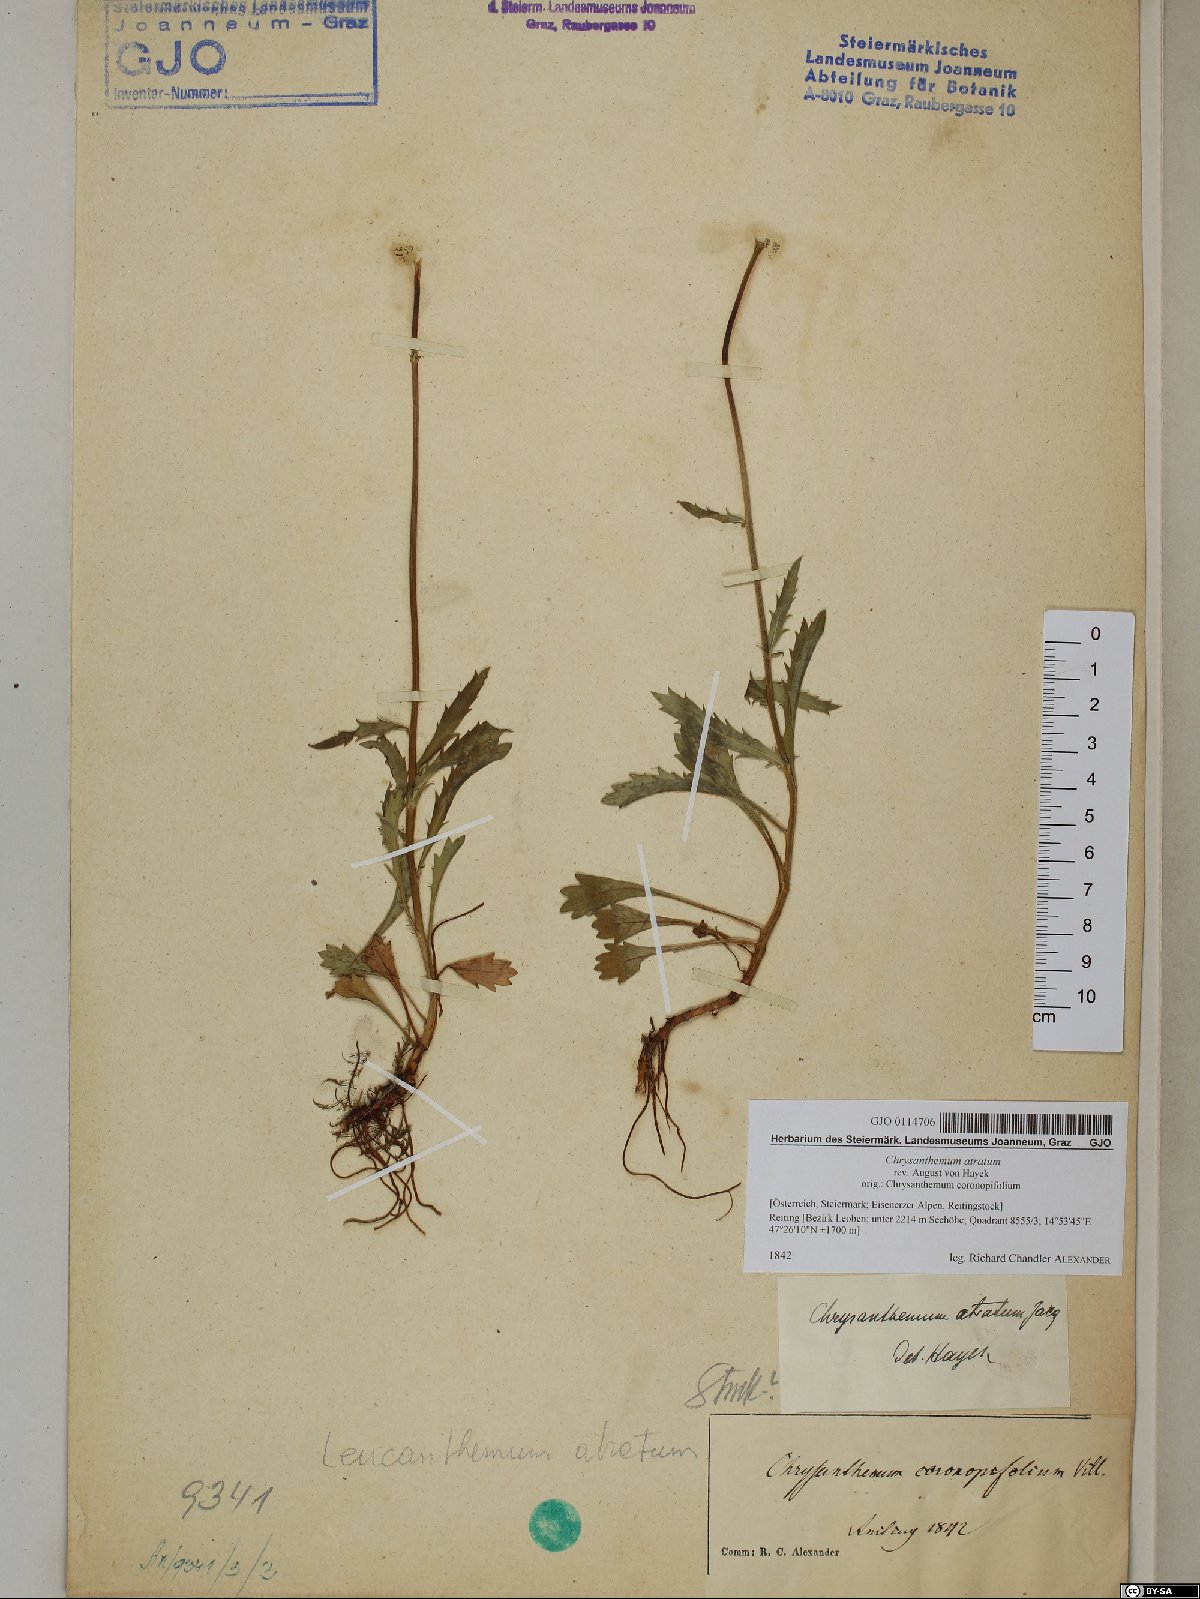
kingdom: Plantae
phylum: Tracheophyta
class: Magnoliopsida
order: Asterales
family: Asteraceae
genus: Leucanthemum
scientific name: Leucanthemum atratum
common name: Saw-leaved moon-daisy
